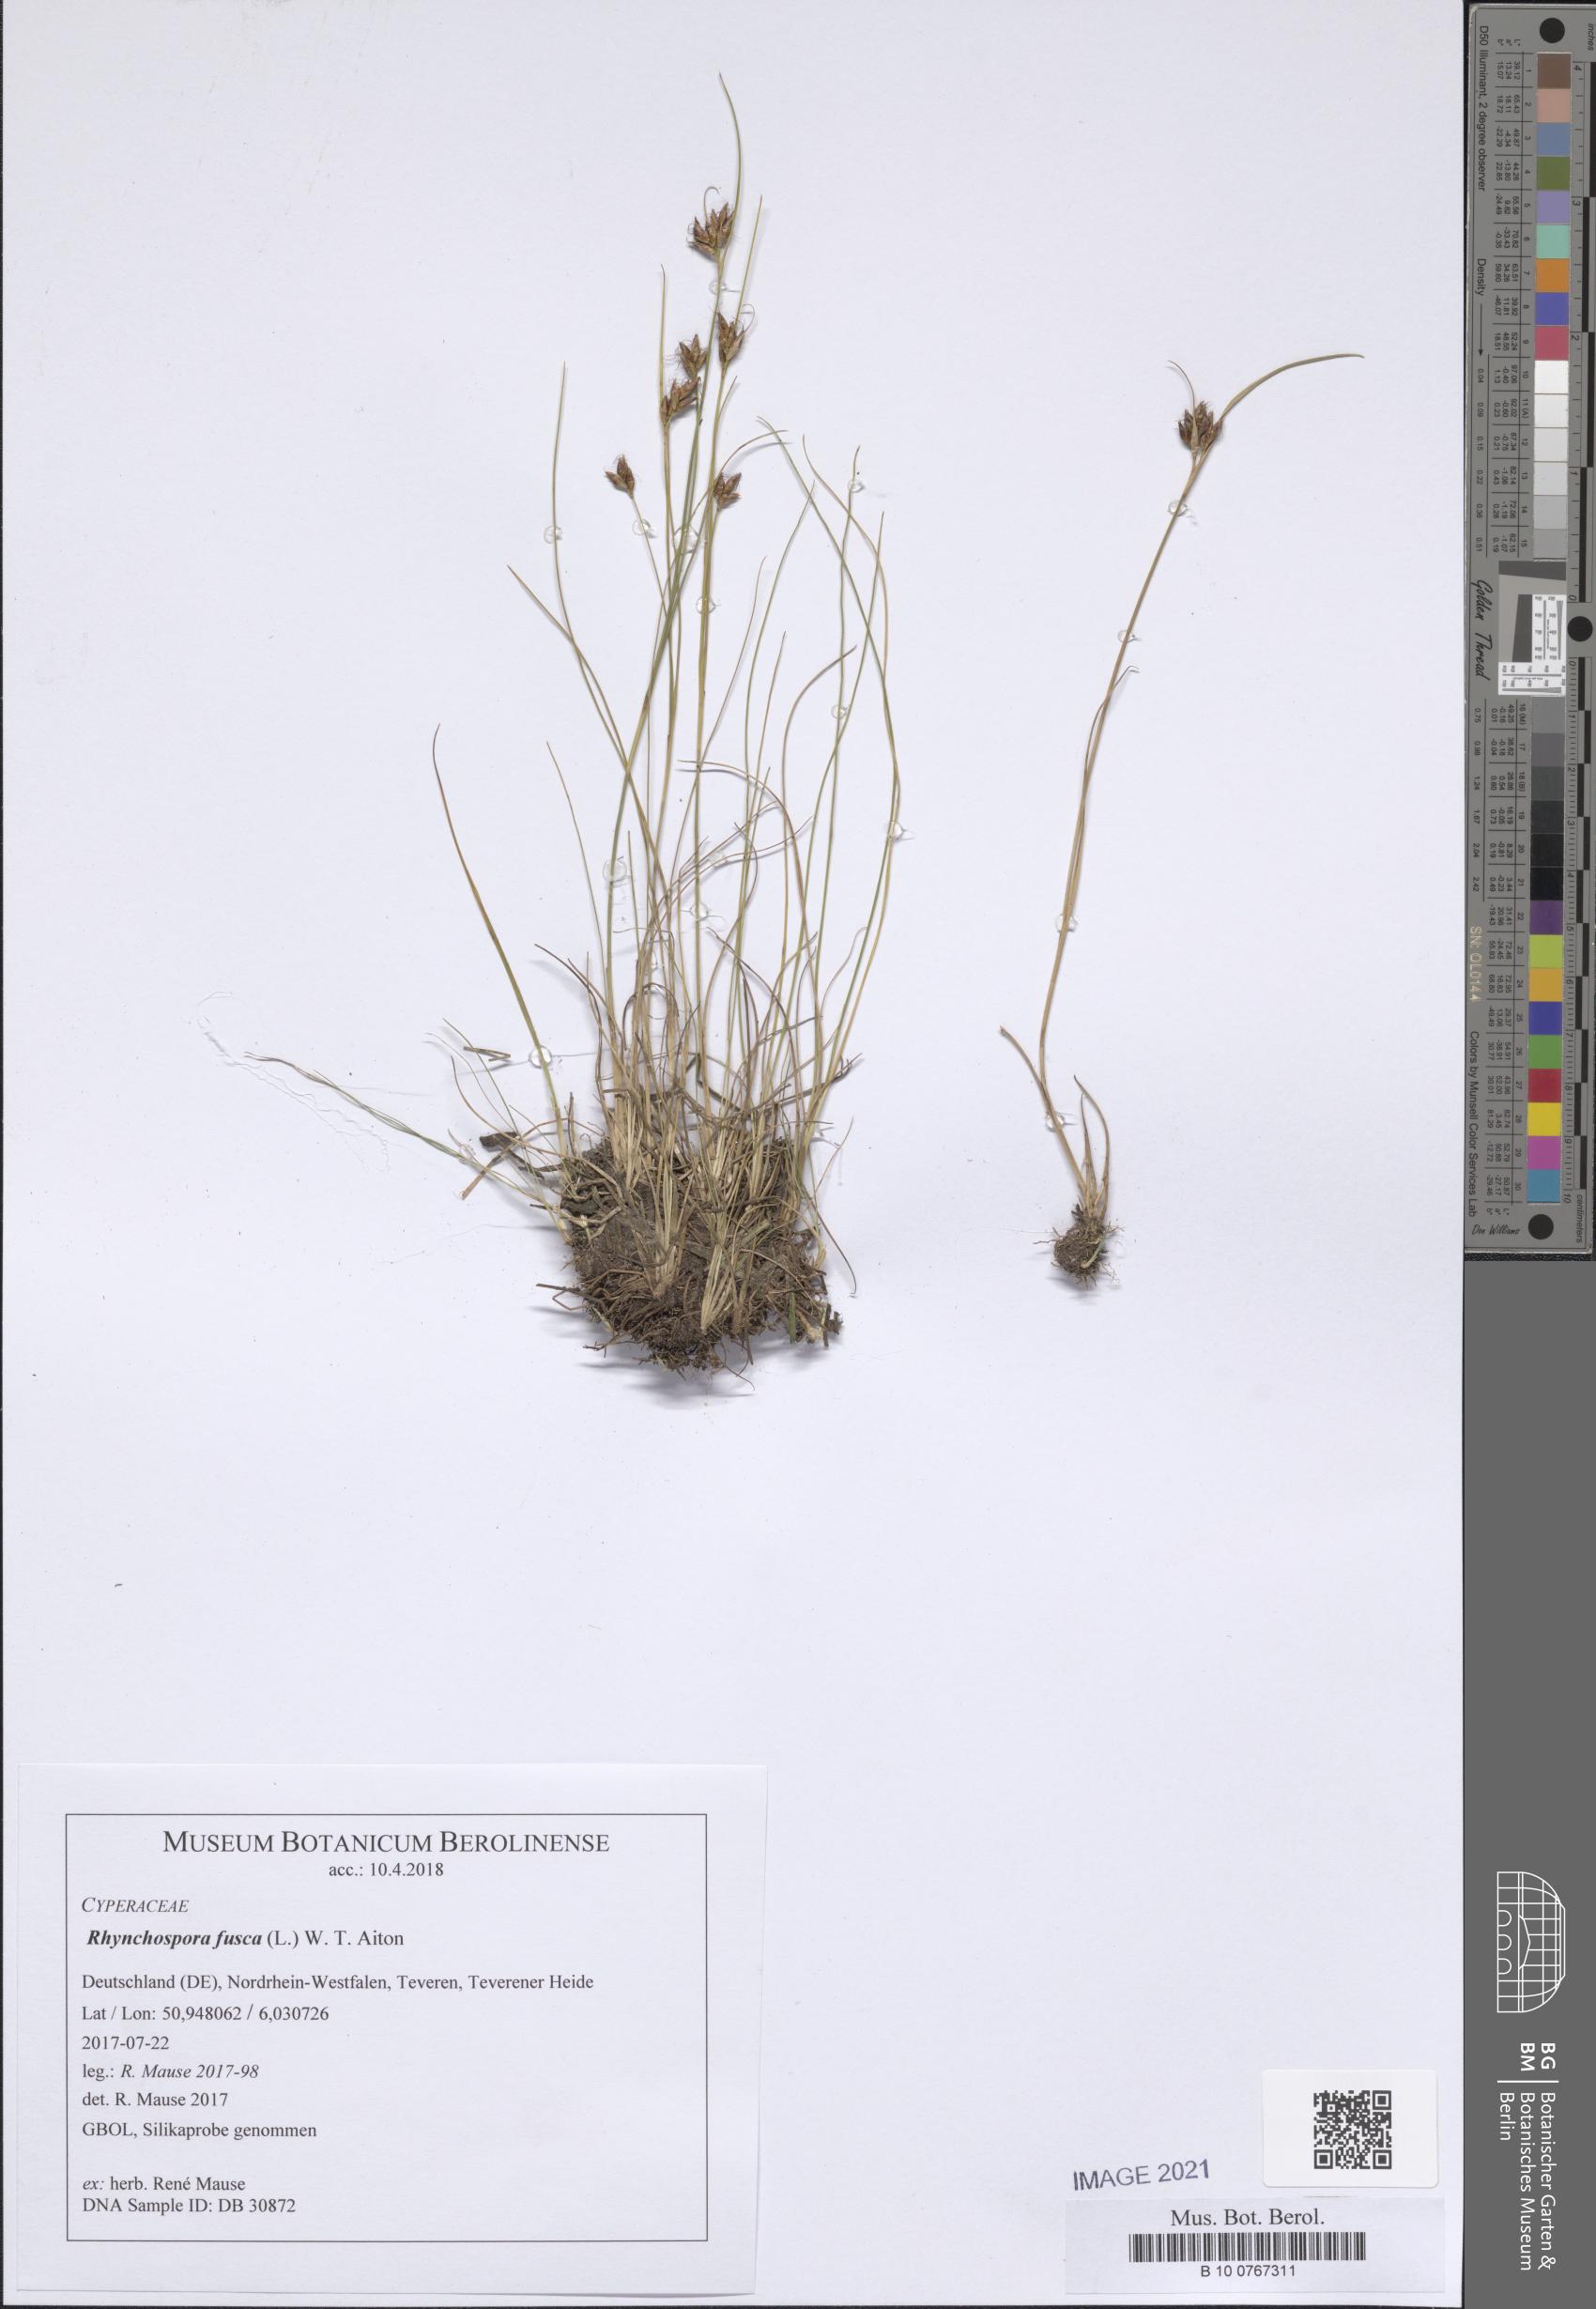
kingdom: Plantae
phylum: Tracheophyta
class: Liliopsida
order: Poales
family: Cyperaceae
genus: Rhynchospora
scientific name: Rhynchospora fusca
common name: Brown beak-sedge
